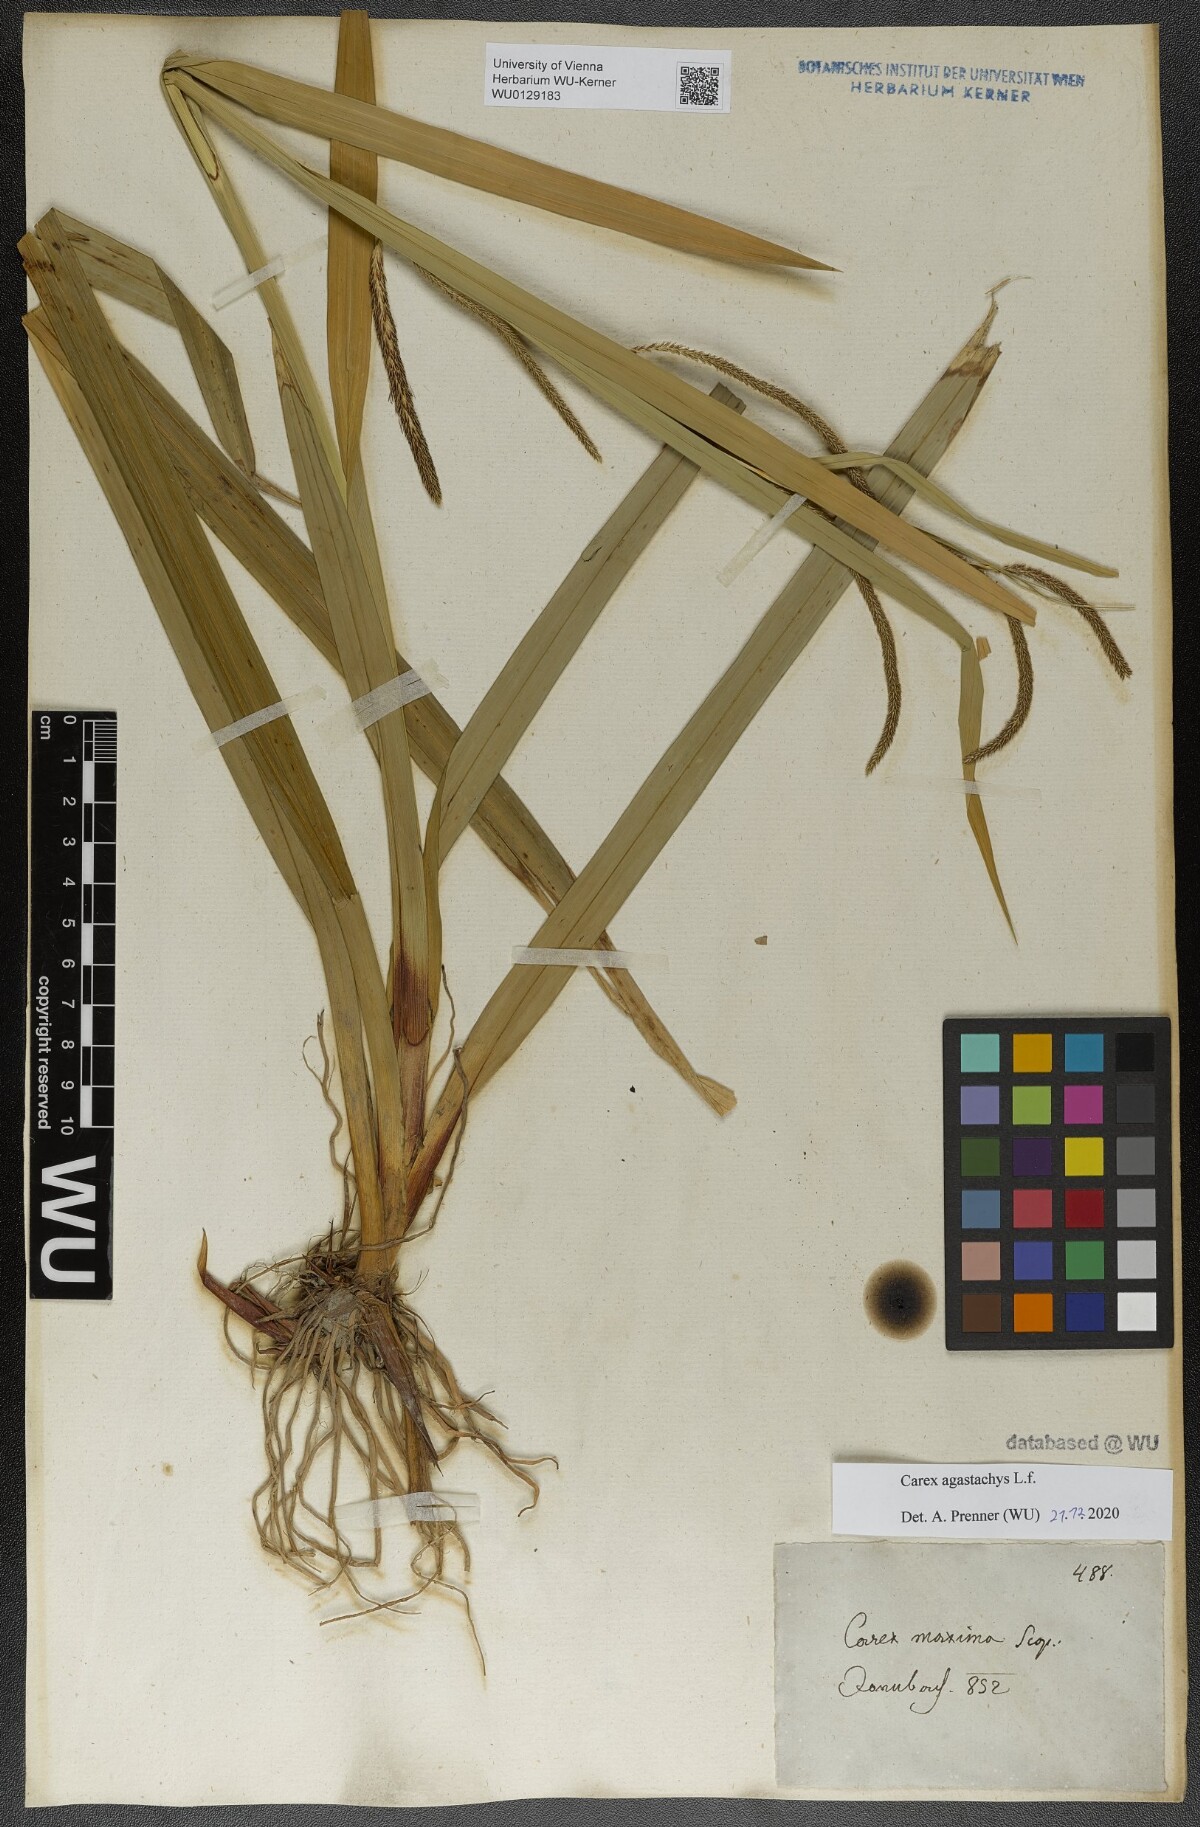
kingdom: Plantae
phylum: Tracheophyta
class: Liliopsida
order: Poales
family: Cyperaceae
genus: Carex
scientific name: Carex agastachys
